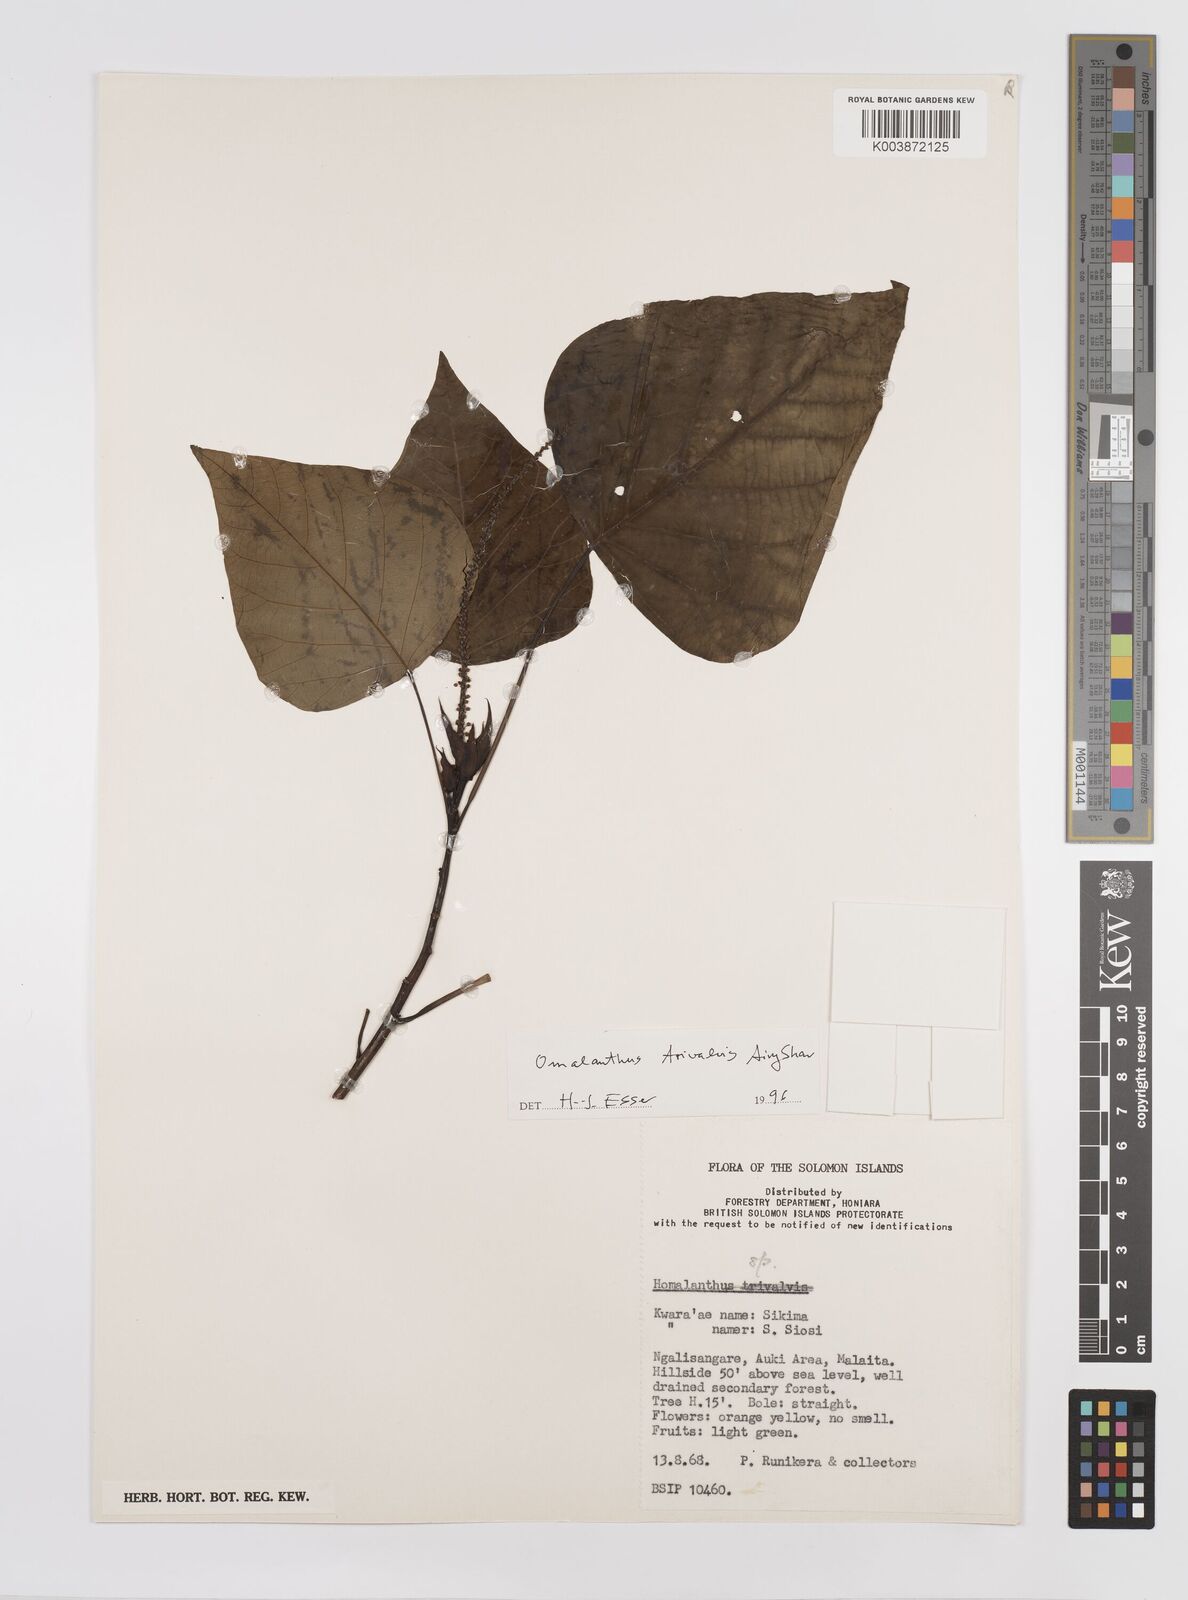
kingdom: Plantae
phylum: Tracheophyta
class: Magnoliopsida
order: Malpighiales
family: Euphorbiaceae
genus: Homalanthus
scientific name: Homalanthus trivalvis
